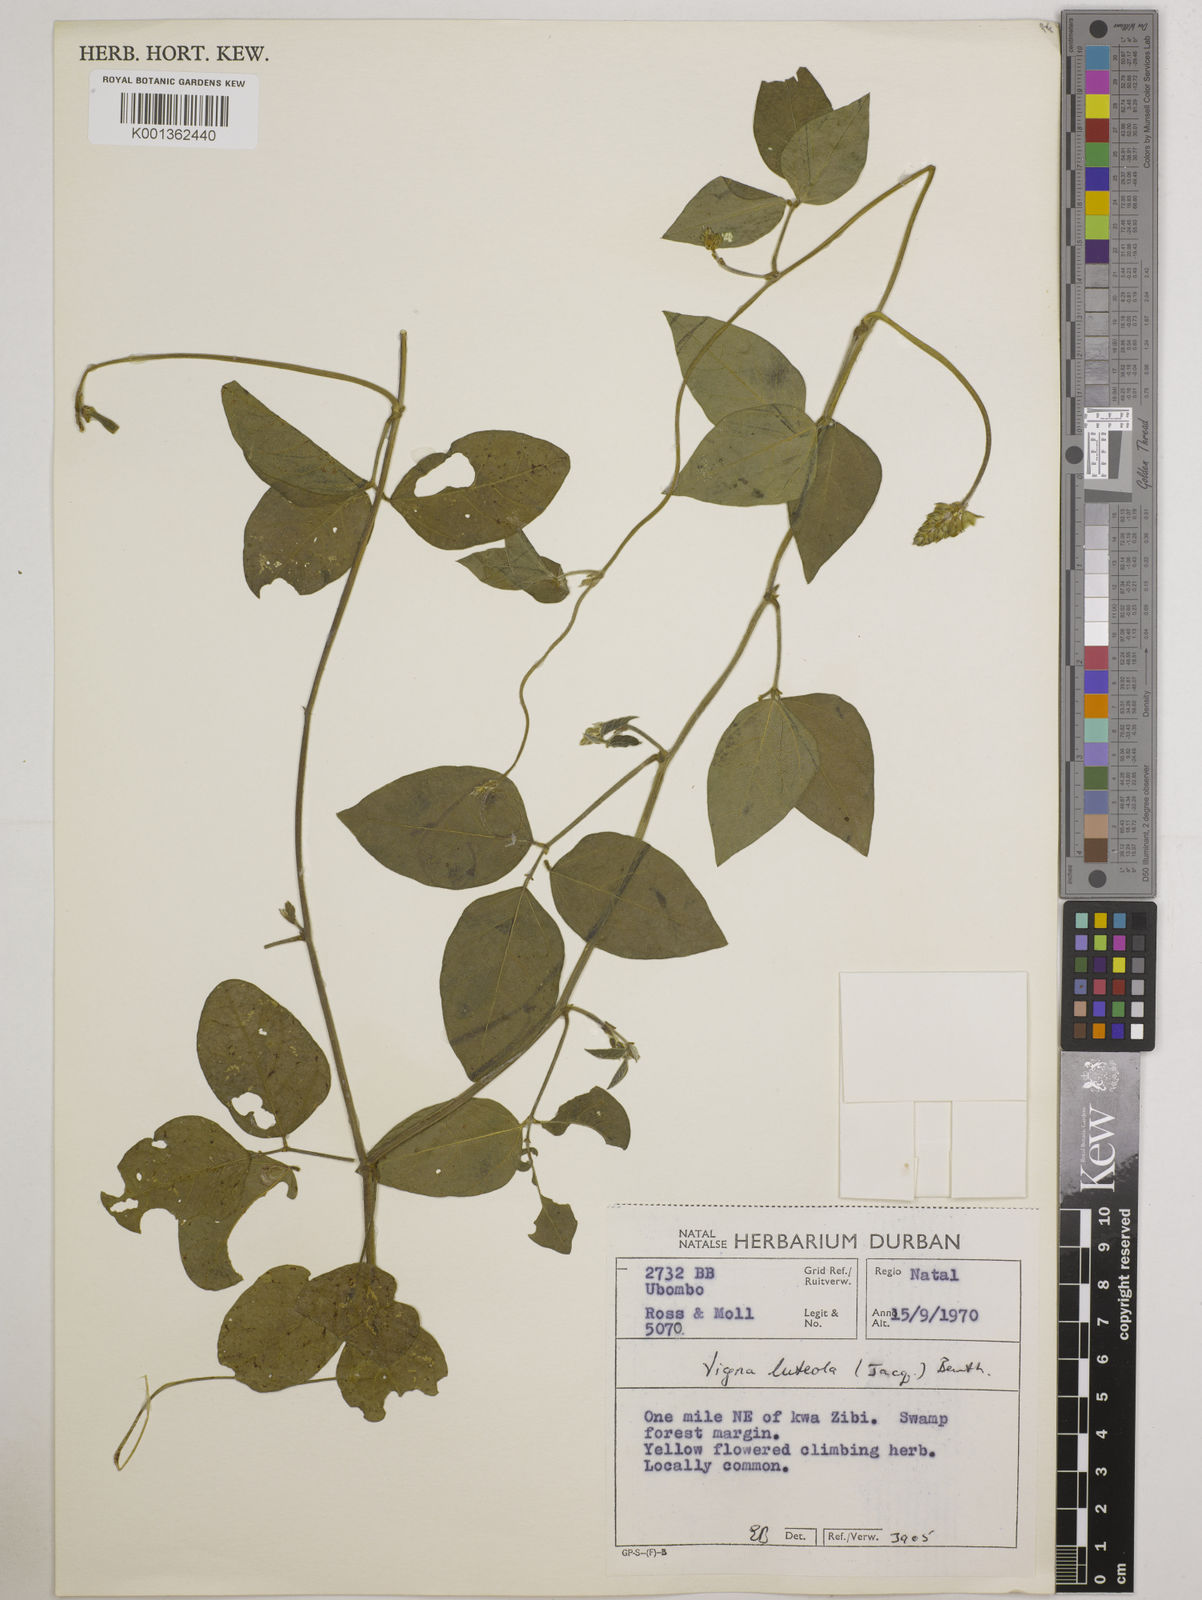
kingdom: Plantae
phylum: Tracheophyta
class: Magnoliopsida
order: Fabales
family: Fabaceae
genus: Vigna
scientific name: Vigna luteola
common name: Hairypod cowpea
